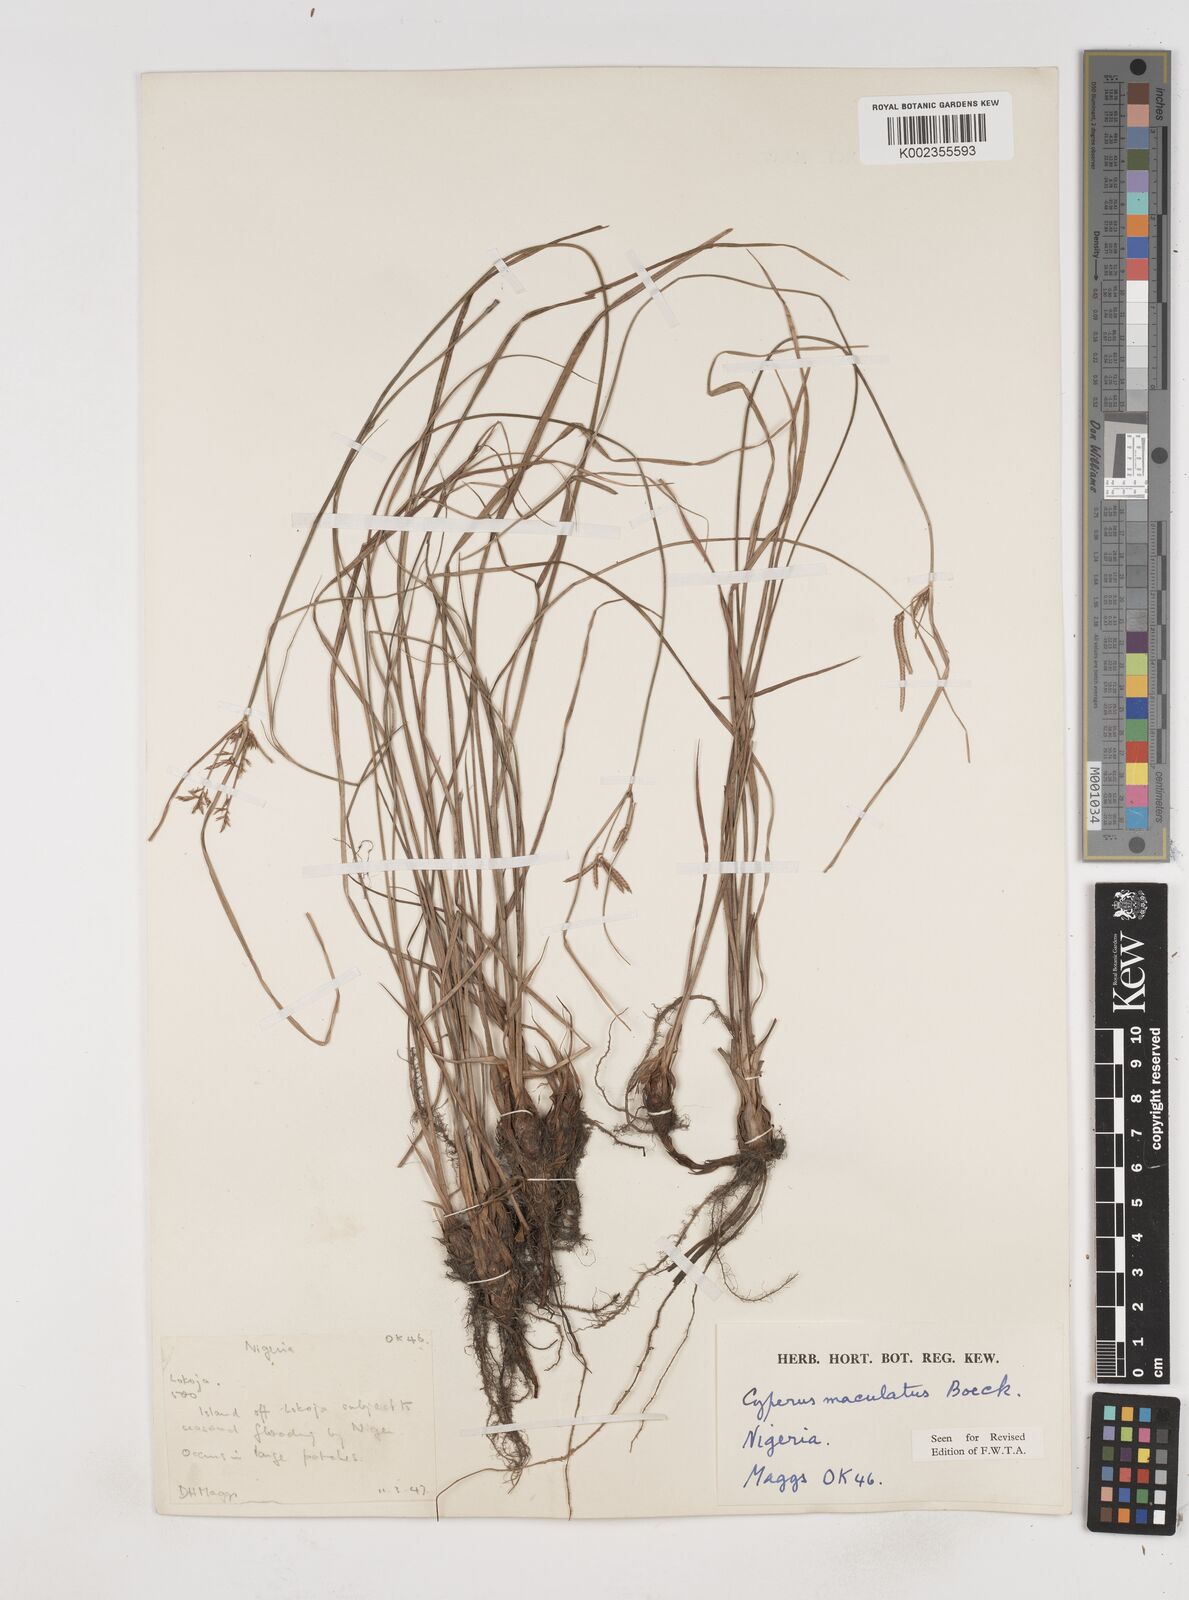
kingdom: Plantae
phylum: Tracheophyta
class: Liliopsida
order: Poales
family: Cyperaceae
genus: Cyperus
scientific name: Cyperus maculatus
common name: Maculated sedge
